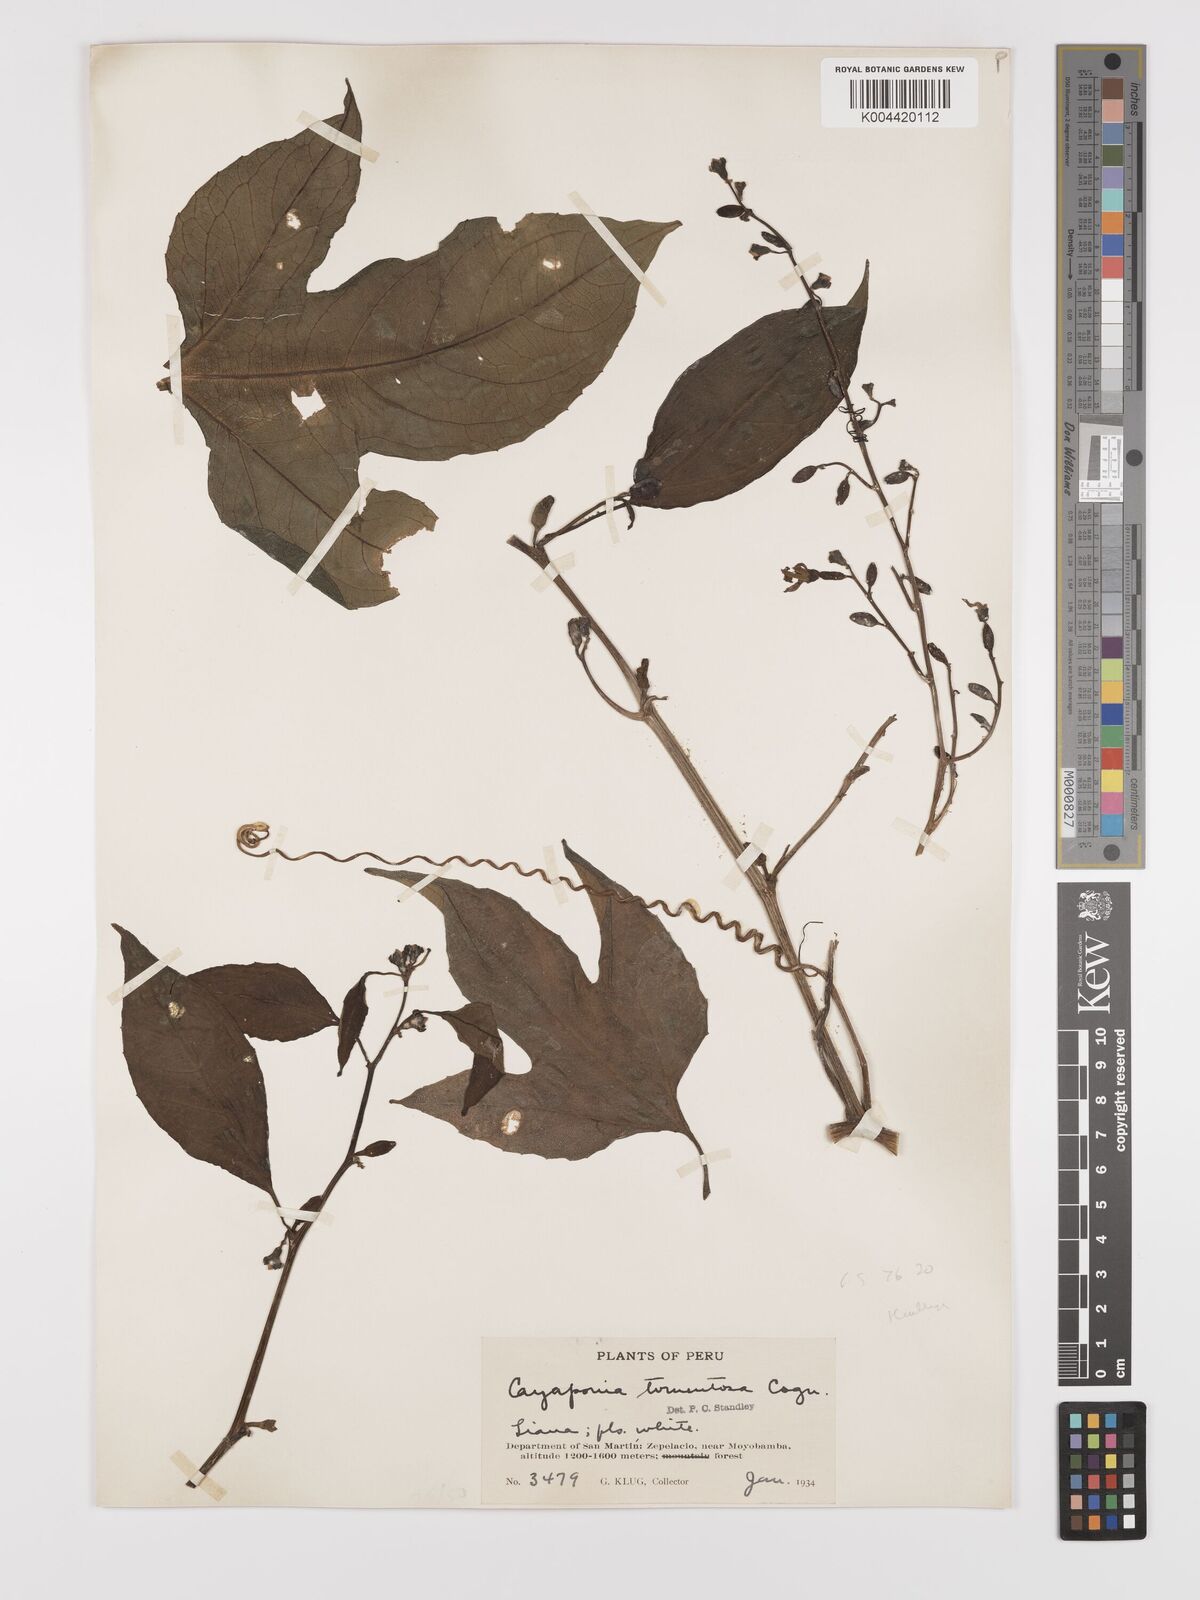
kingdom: Plantae
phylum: Tracheophyta
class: Magnoliopsida
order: Cucurbitales
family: Cucurbitaceae
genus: Cayaponia
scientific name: Cayaponia glandulosa
